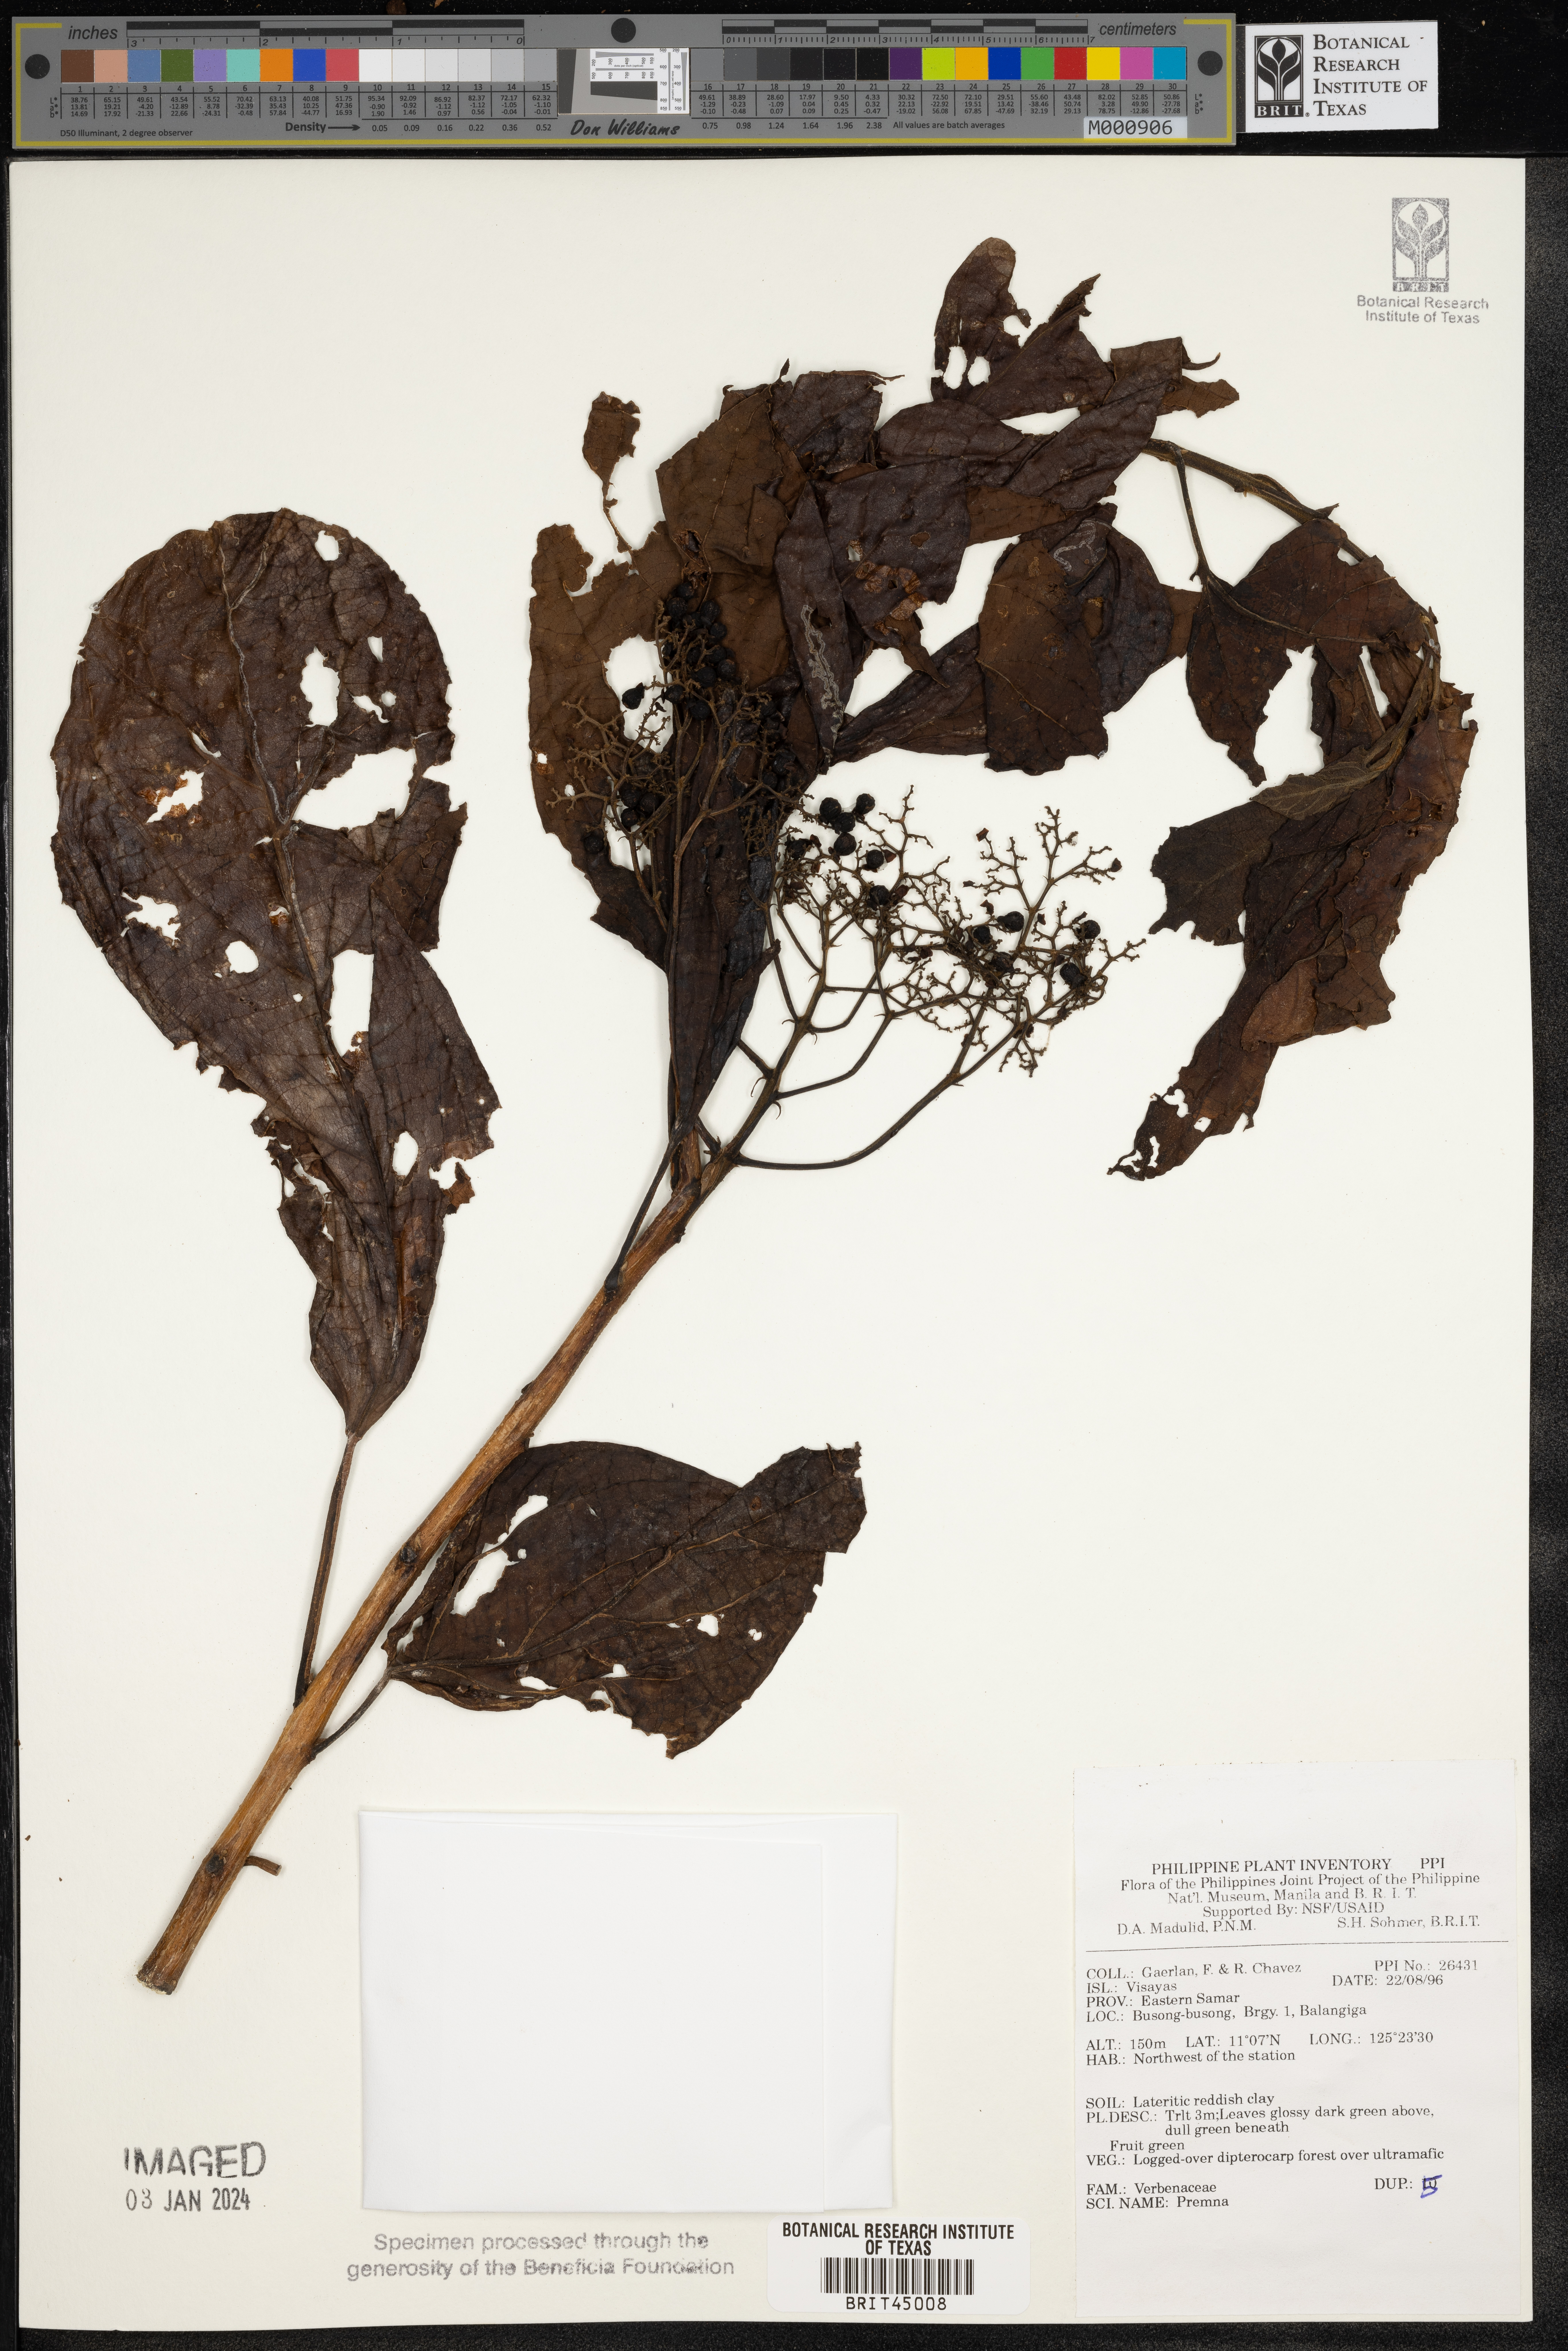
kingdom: Plantae
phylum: Tracheophyta
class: Magnoliopsida
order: Lamiales
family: Lamiaceae
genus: Premna
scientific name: Premna
